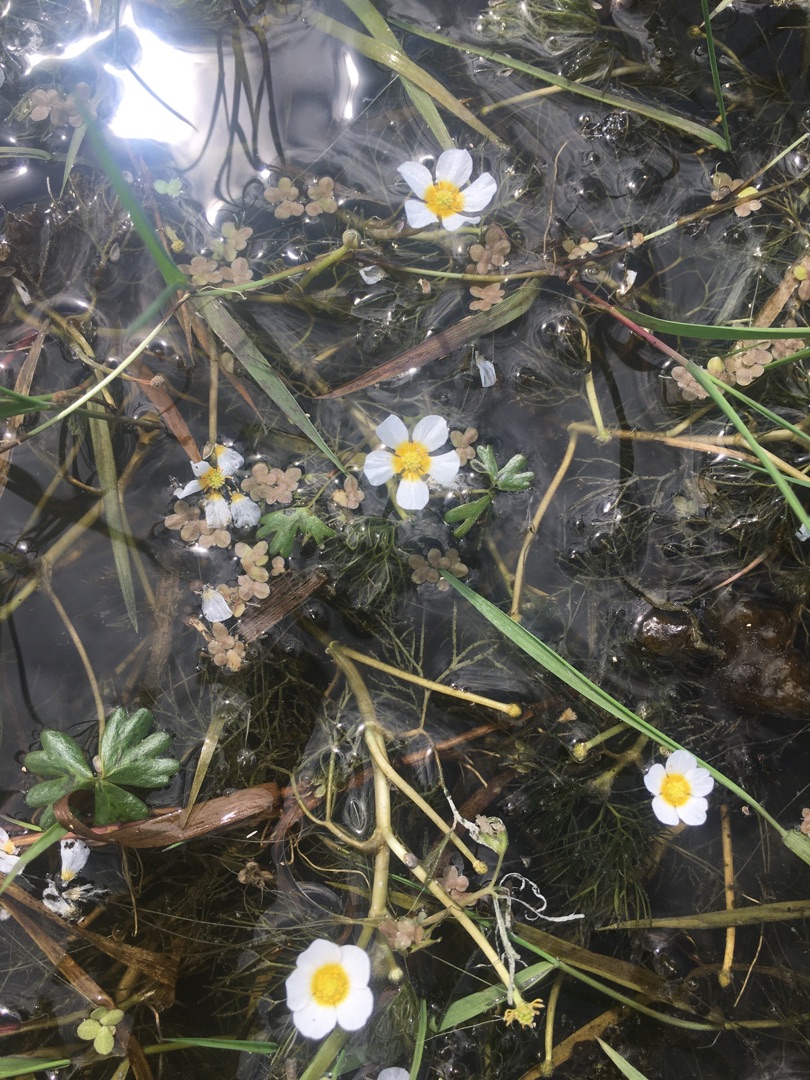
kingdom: Plantae
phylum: Tracheophyta
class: Magnoliopsida
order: Ranunculales
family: Ranunculaceae
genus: Ranunculus
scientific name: Ranunculus aquatilis
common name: Almindelig vandranunkel
